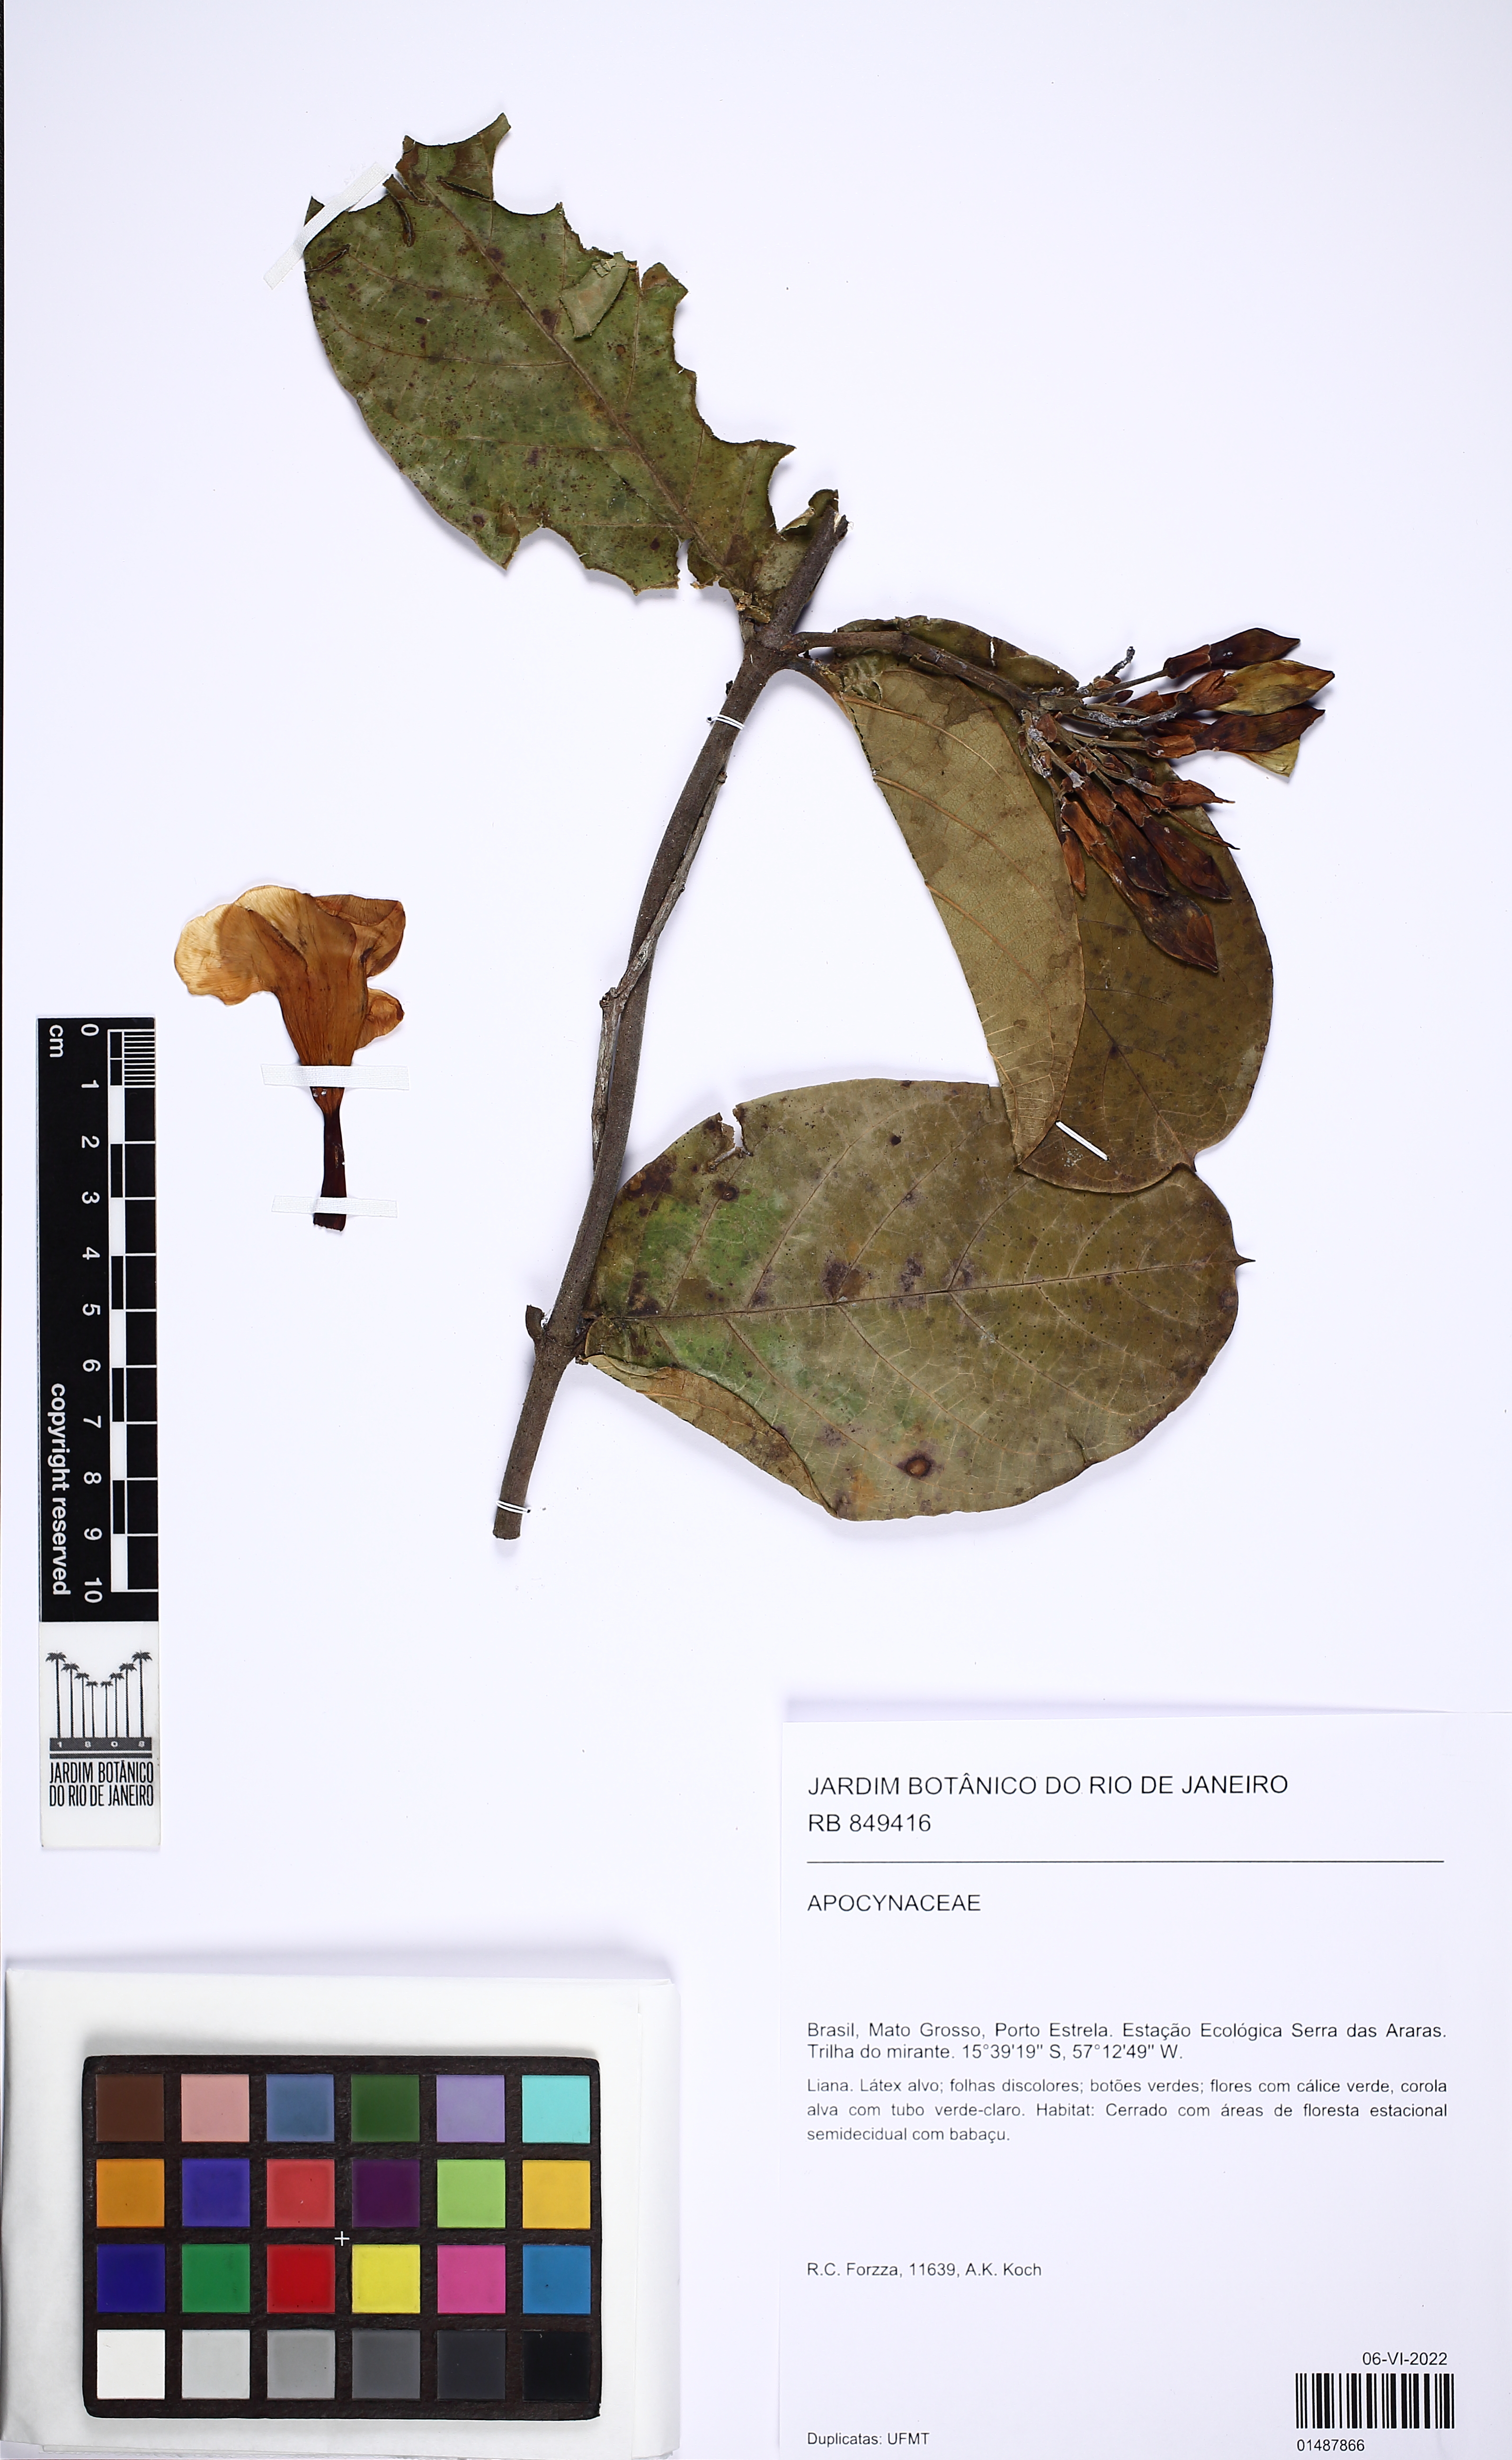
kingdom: Plantae
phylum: Tracheophyta
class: Magnoliopsida
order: Gentianales
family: Apocynaceae
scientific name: Apocynaceae
